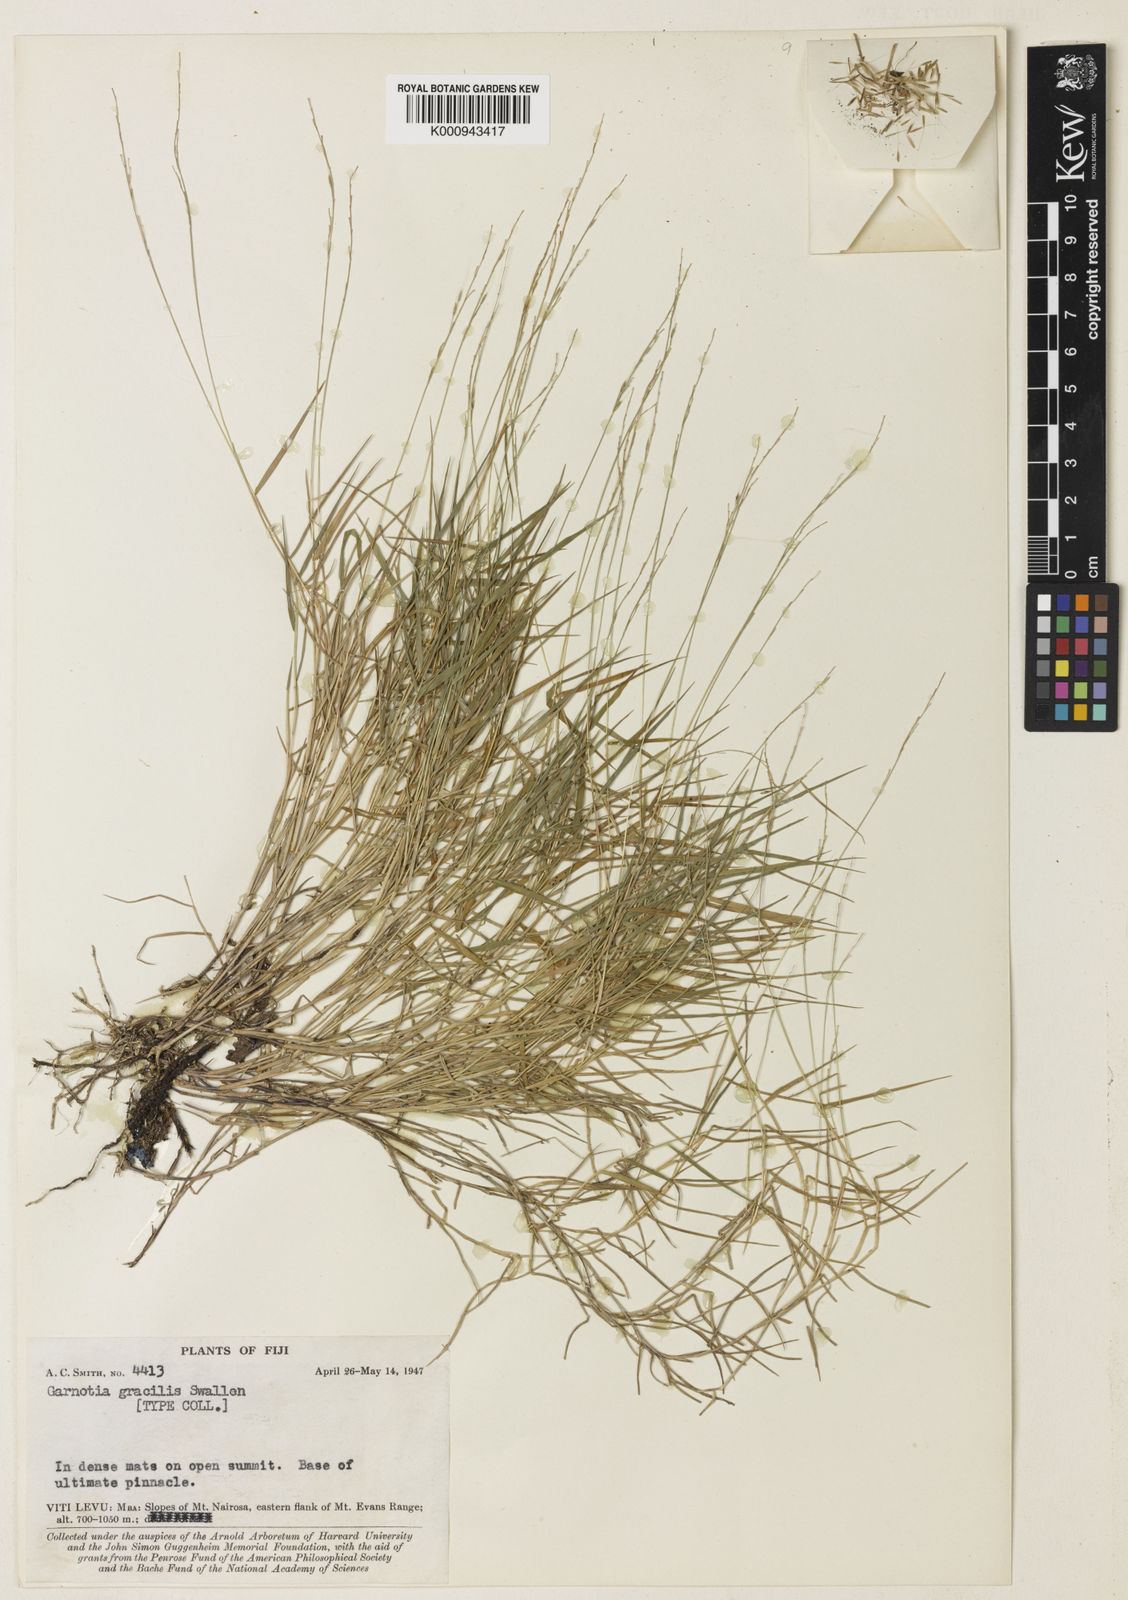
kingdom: Plantae
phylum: Tracheophyta
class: Liliopsida
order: Poales
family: Poaceae
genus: Garnotia
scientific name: Garnotia gracilis
